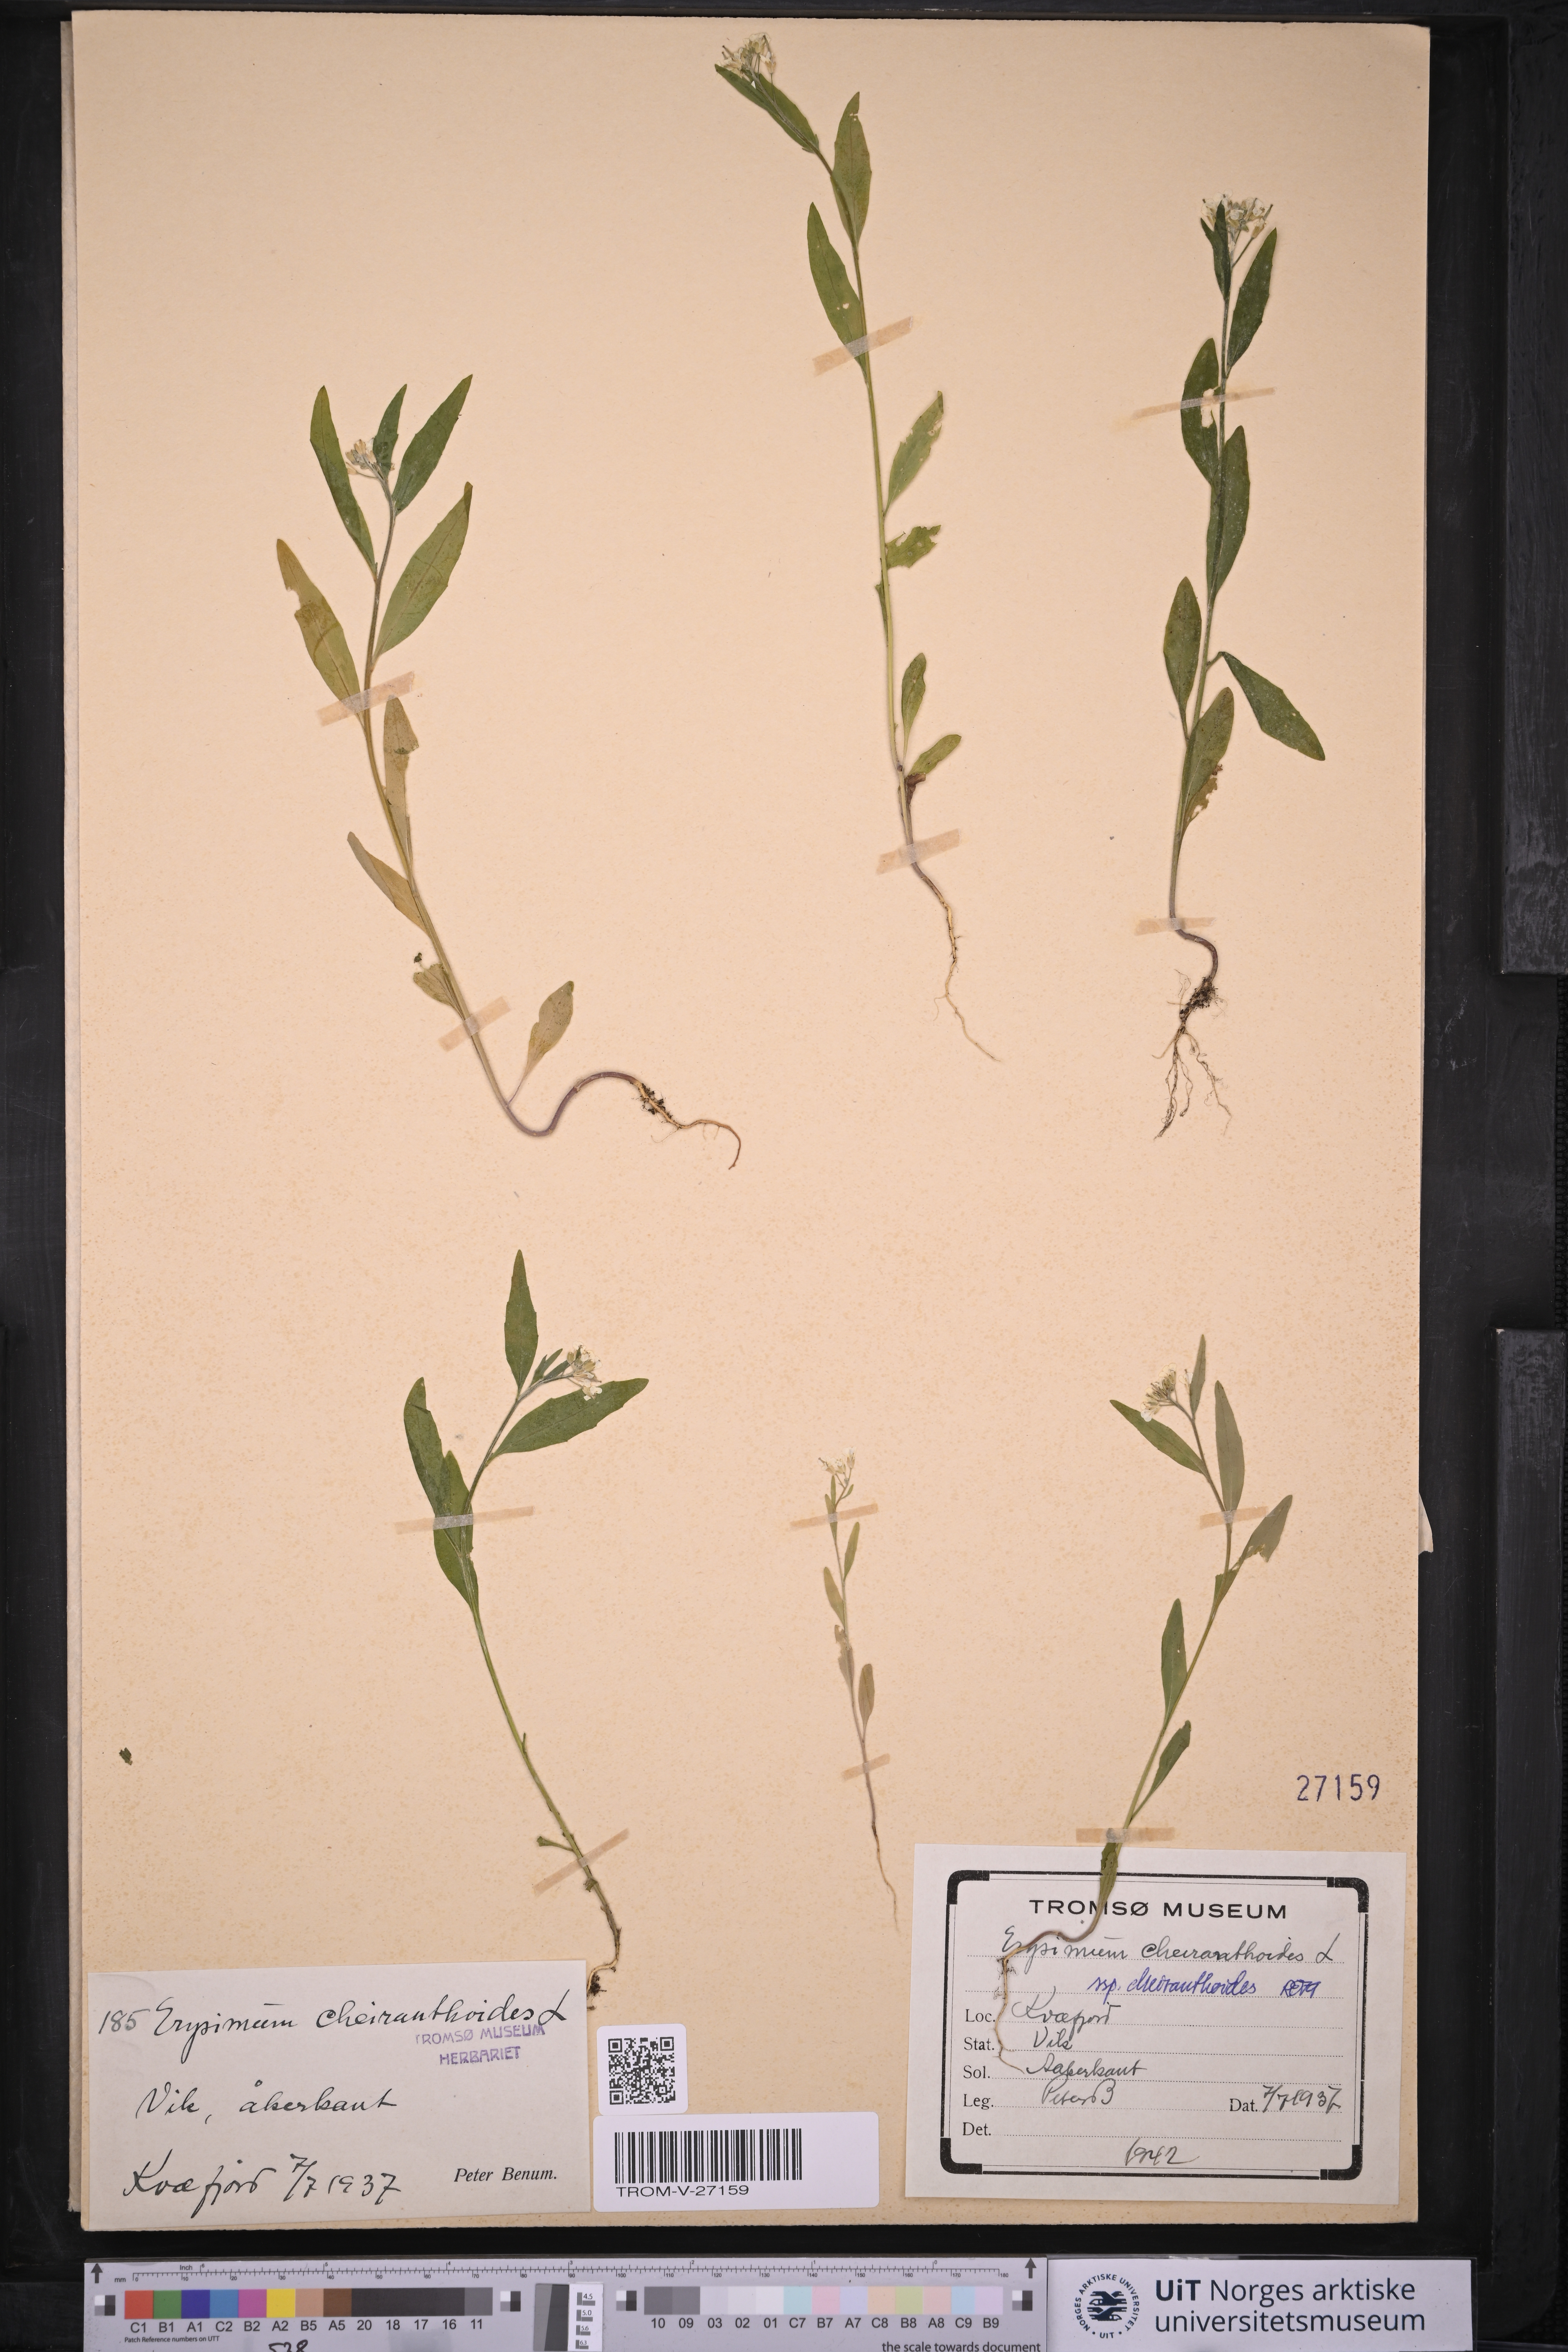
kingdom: Plantae
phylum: Tracheophyta
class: Magnoliopsida
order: Brassicales
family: Brassicaceae
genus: Erysimum
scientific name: Erysimum cheiranthoides
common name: Treacle mustard
